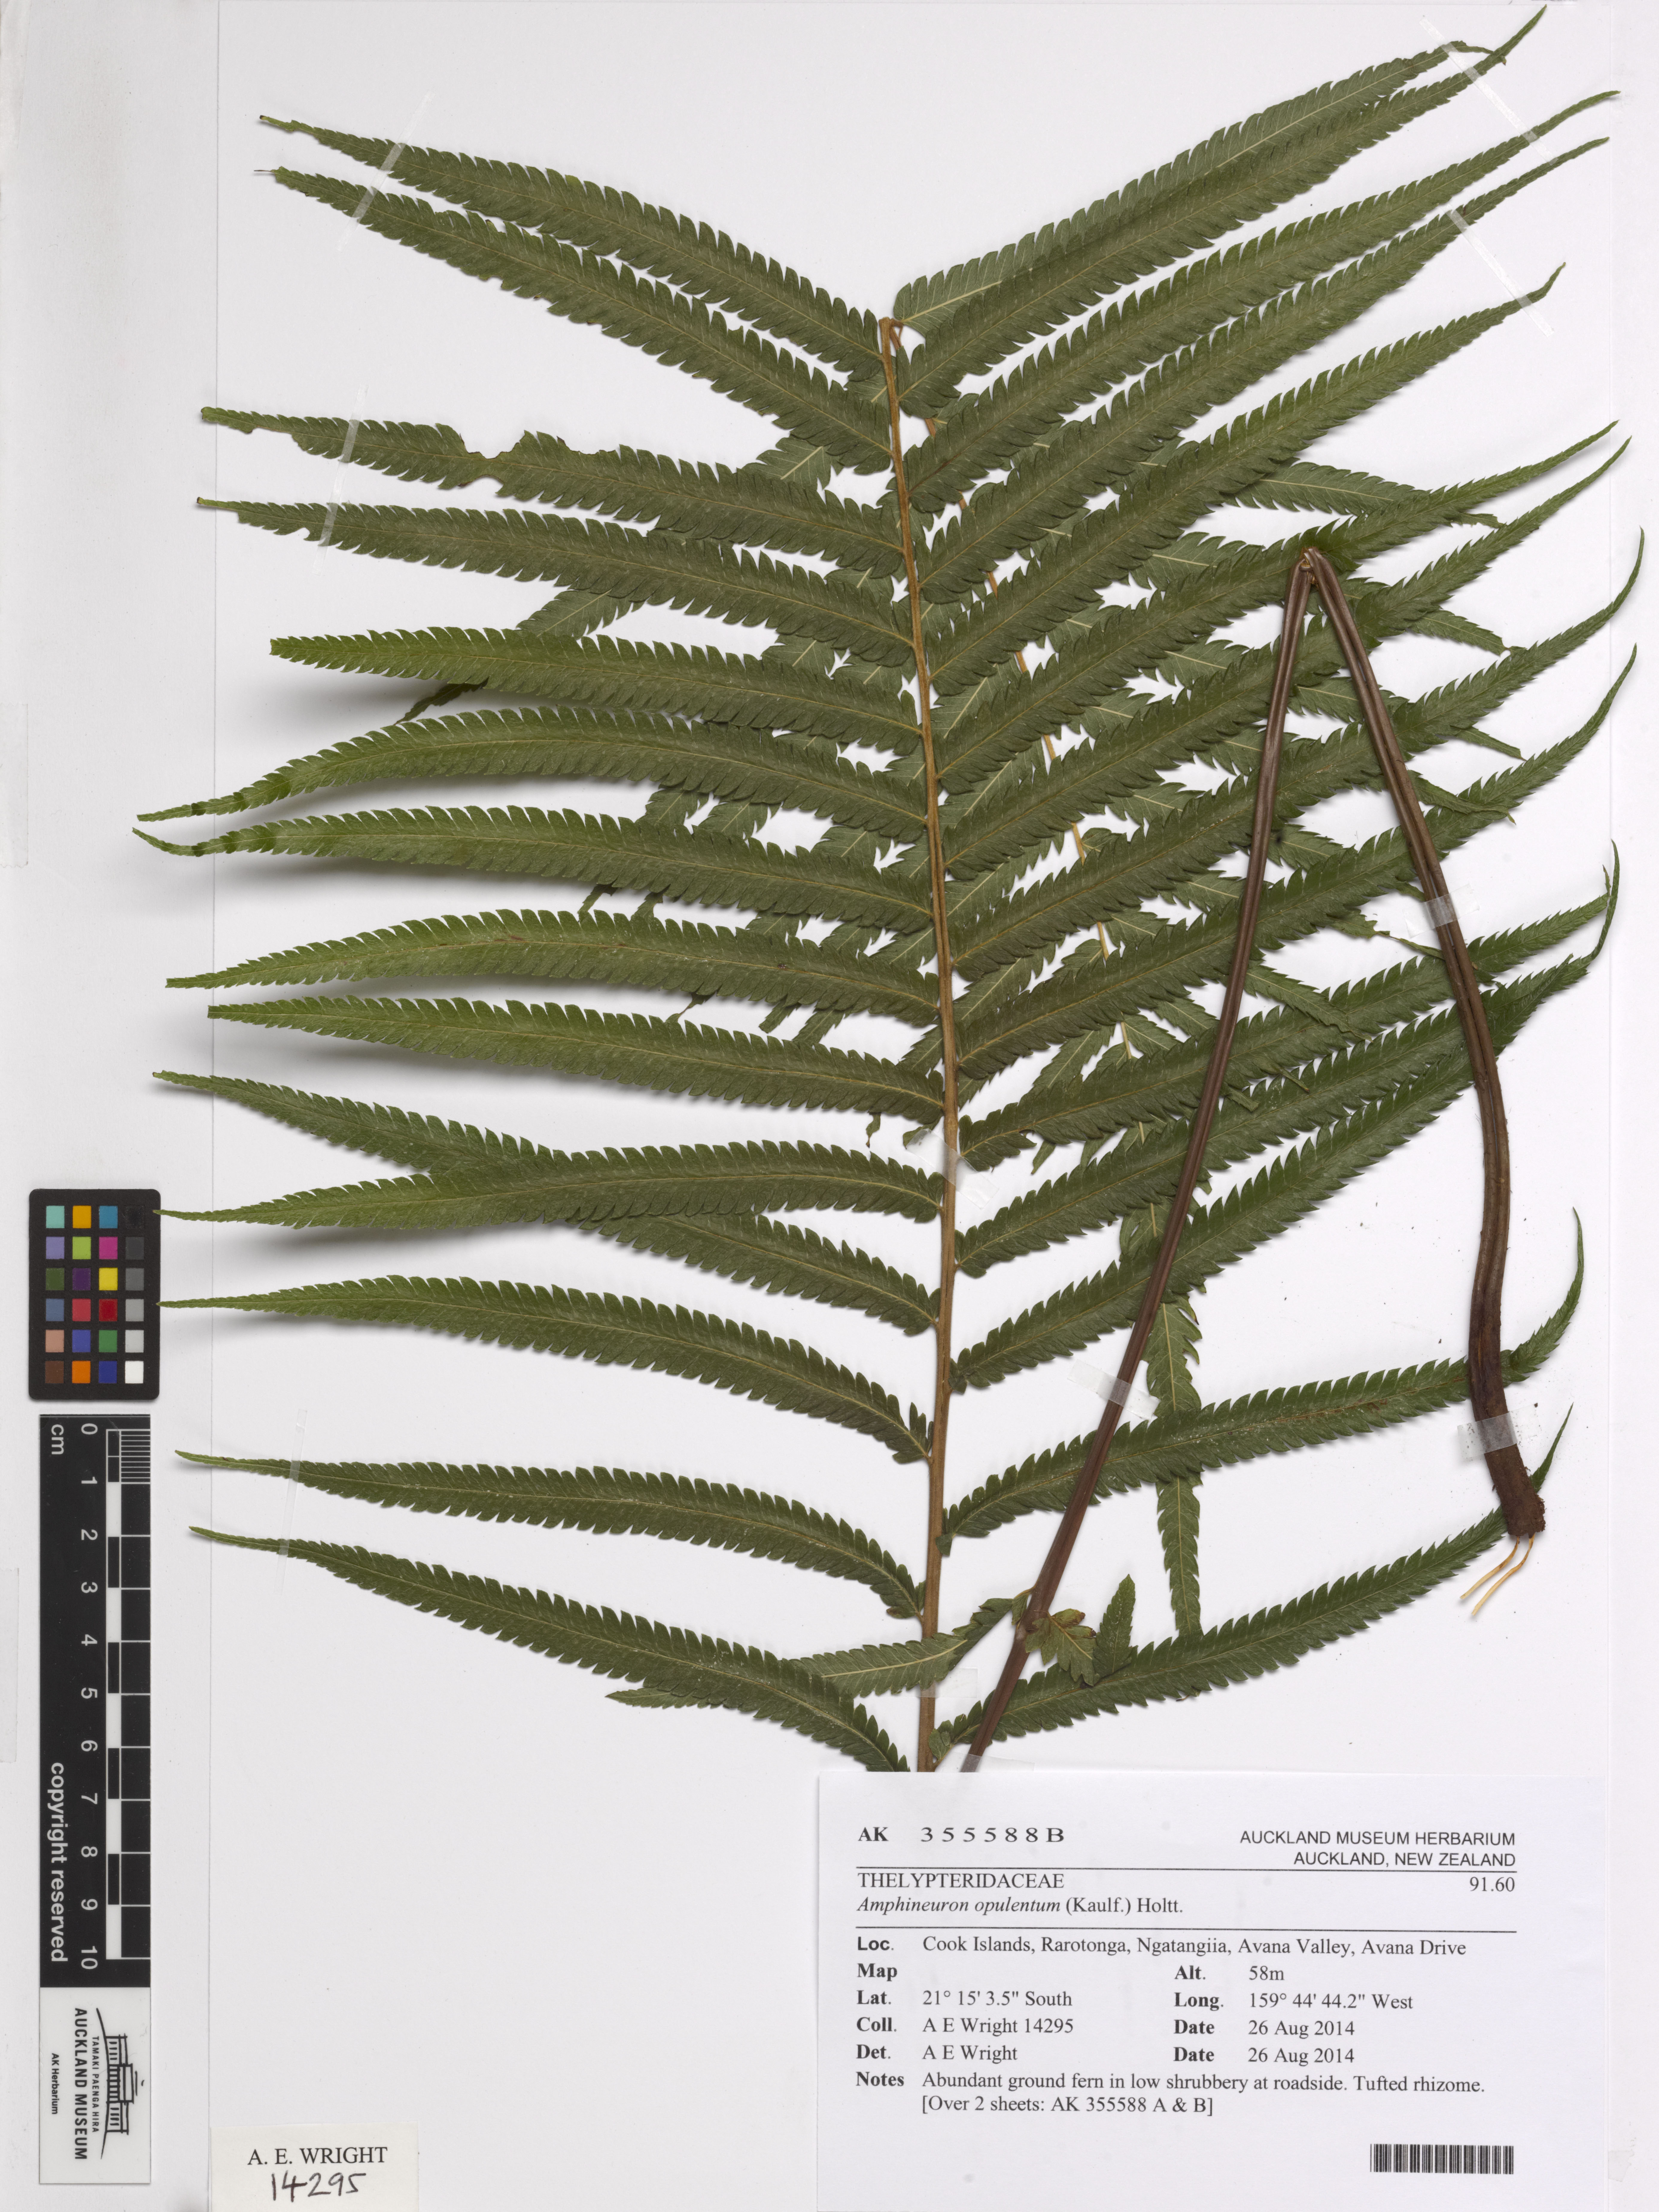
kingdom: Plantae
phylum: Tracheophyta
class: Polypodiopsida
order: Polypodiales
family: Thelypteridaceae
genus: Amblovenatum
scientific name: Amblovenatum opulentum
